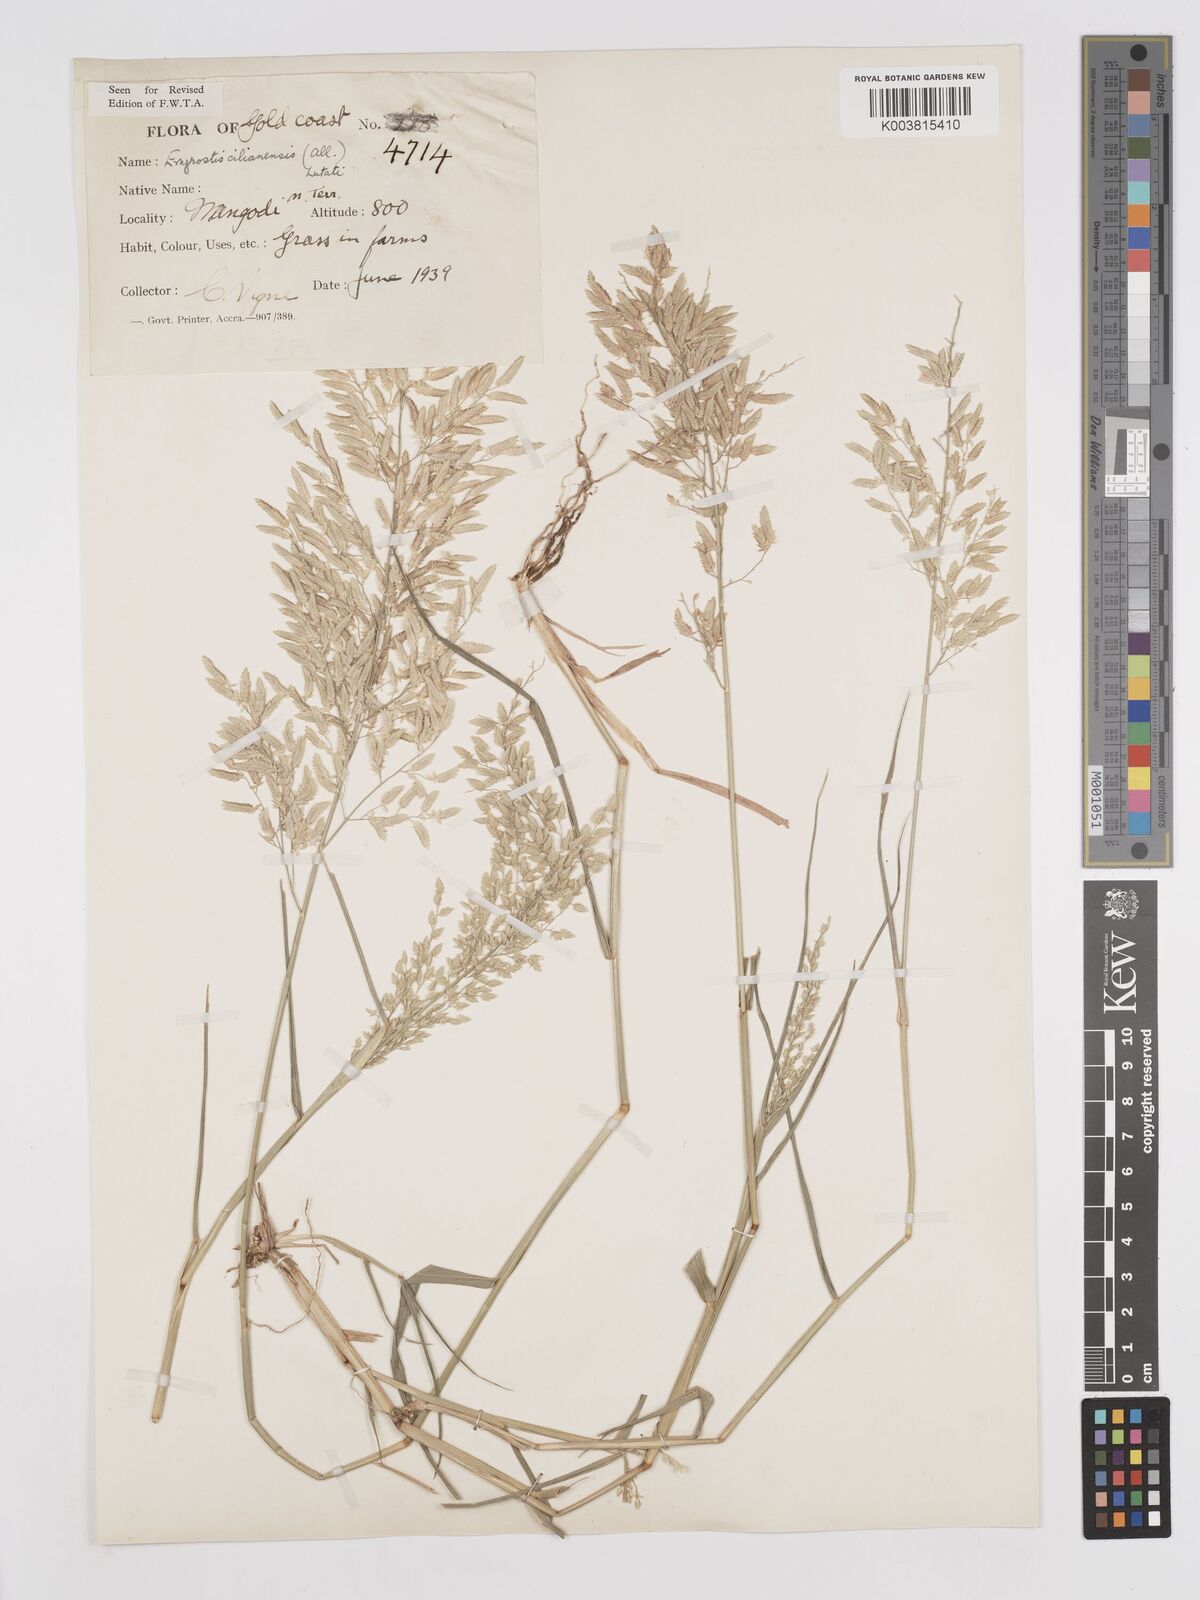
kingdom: Plantae
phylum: Tracheophyta
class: Liliopsida
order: Poales
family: Poaceae
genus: Eragrostis
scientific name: Eragrostis cilianensis
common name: Stinkgrass
